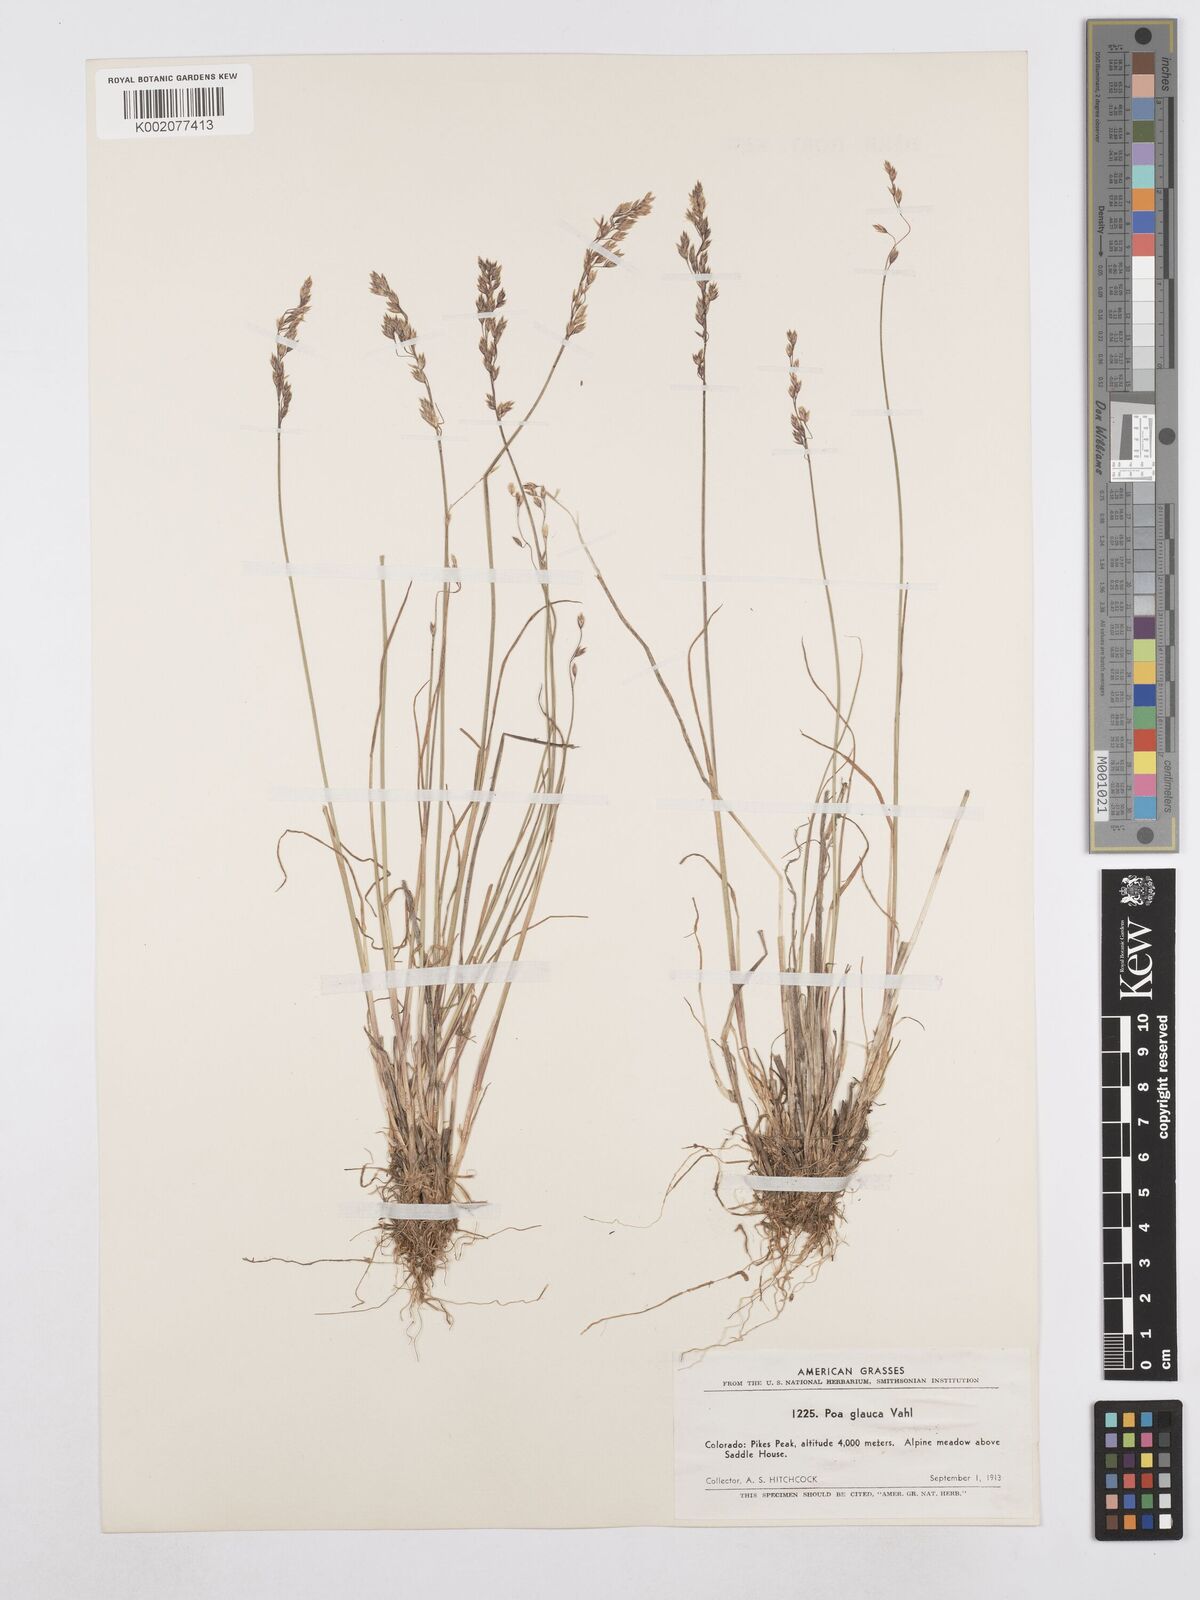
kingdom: Plantae
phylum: Tracheophyta
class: Liliopsida
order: Poales
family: Poaceae
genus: Poa
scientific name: Poa glauca
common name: Glaucous bluegrass
